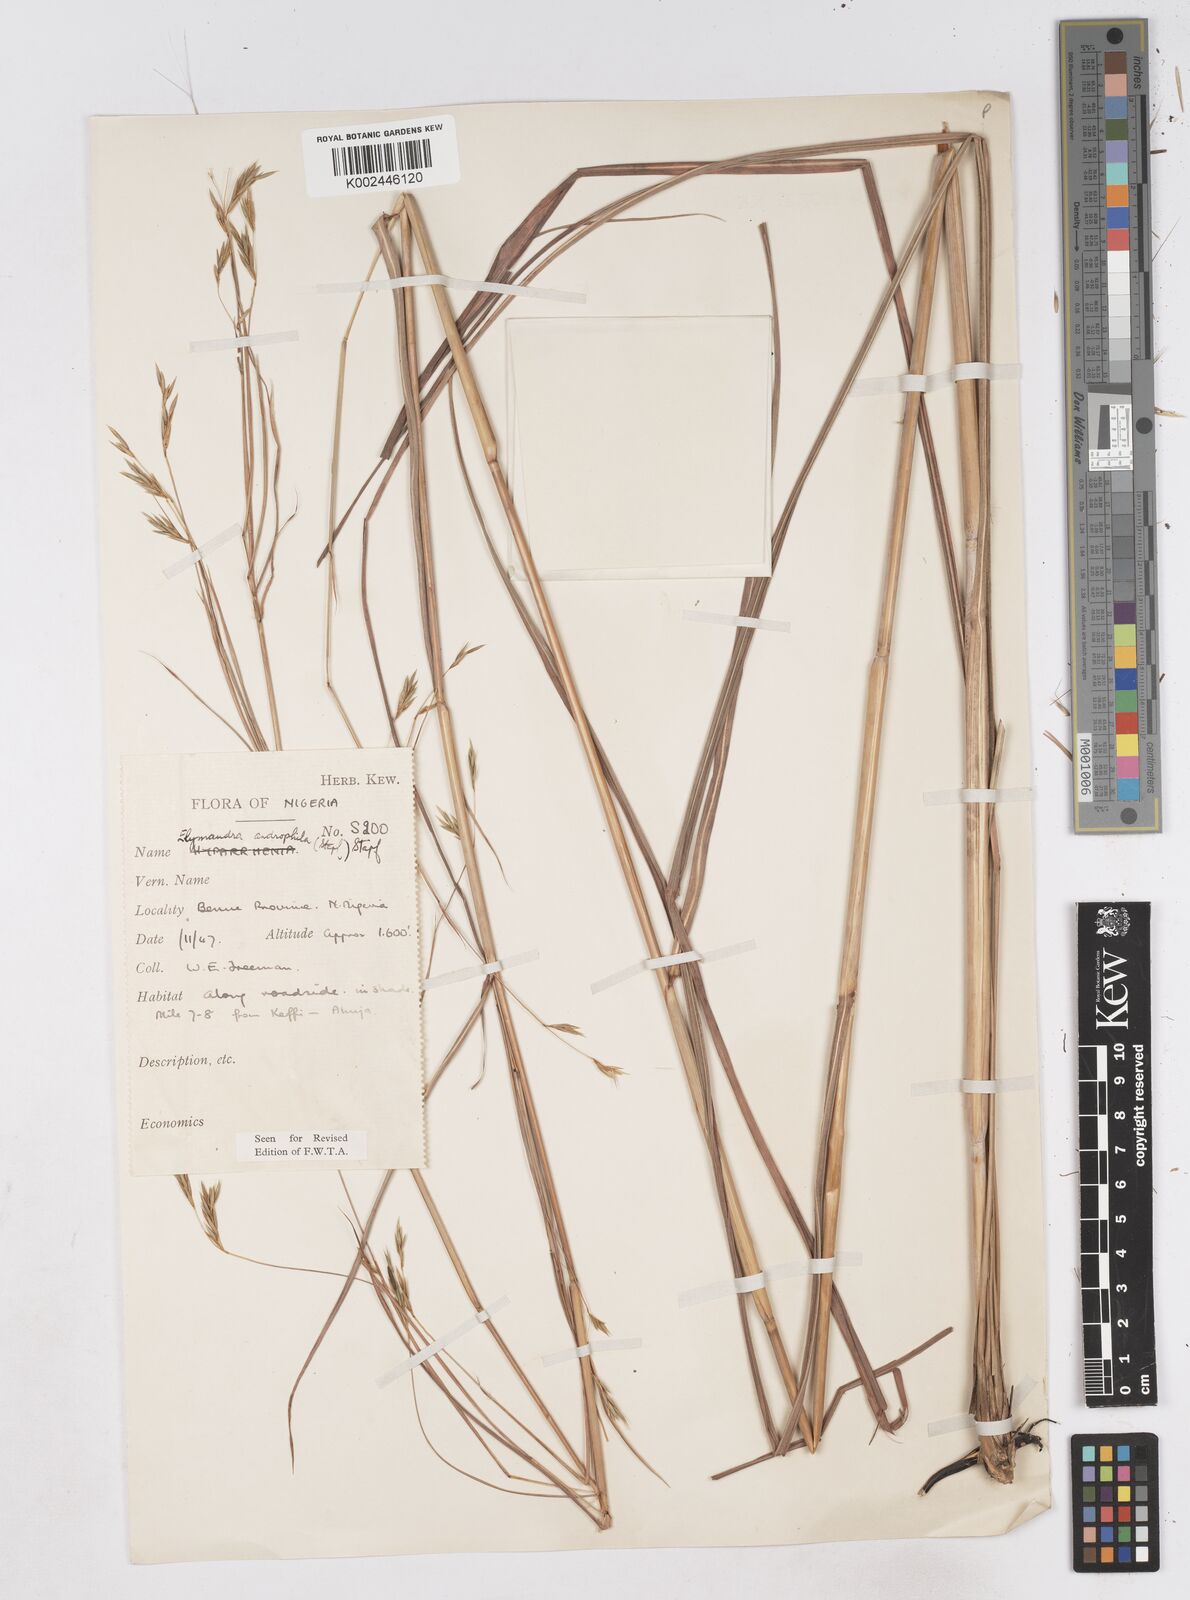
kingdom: Plantae
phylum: Tracheophyta
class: Liliopsida
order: Poales
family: Poaceae
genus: Elymandra
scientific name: Elymandra androphila
